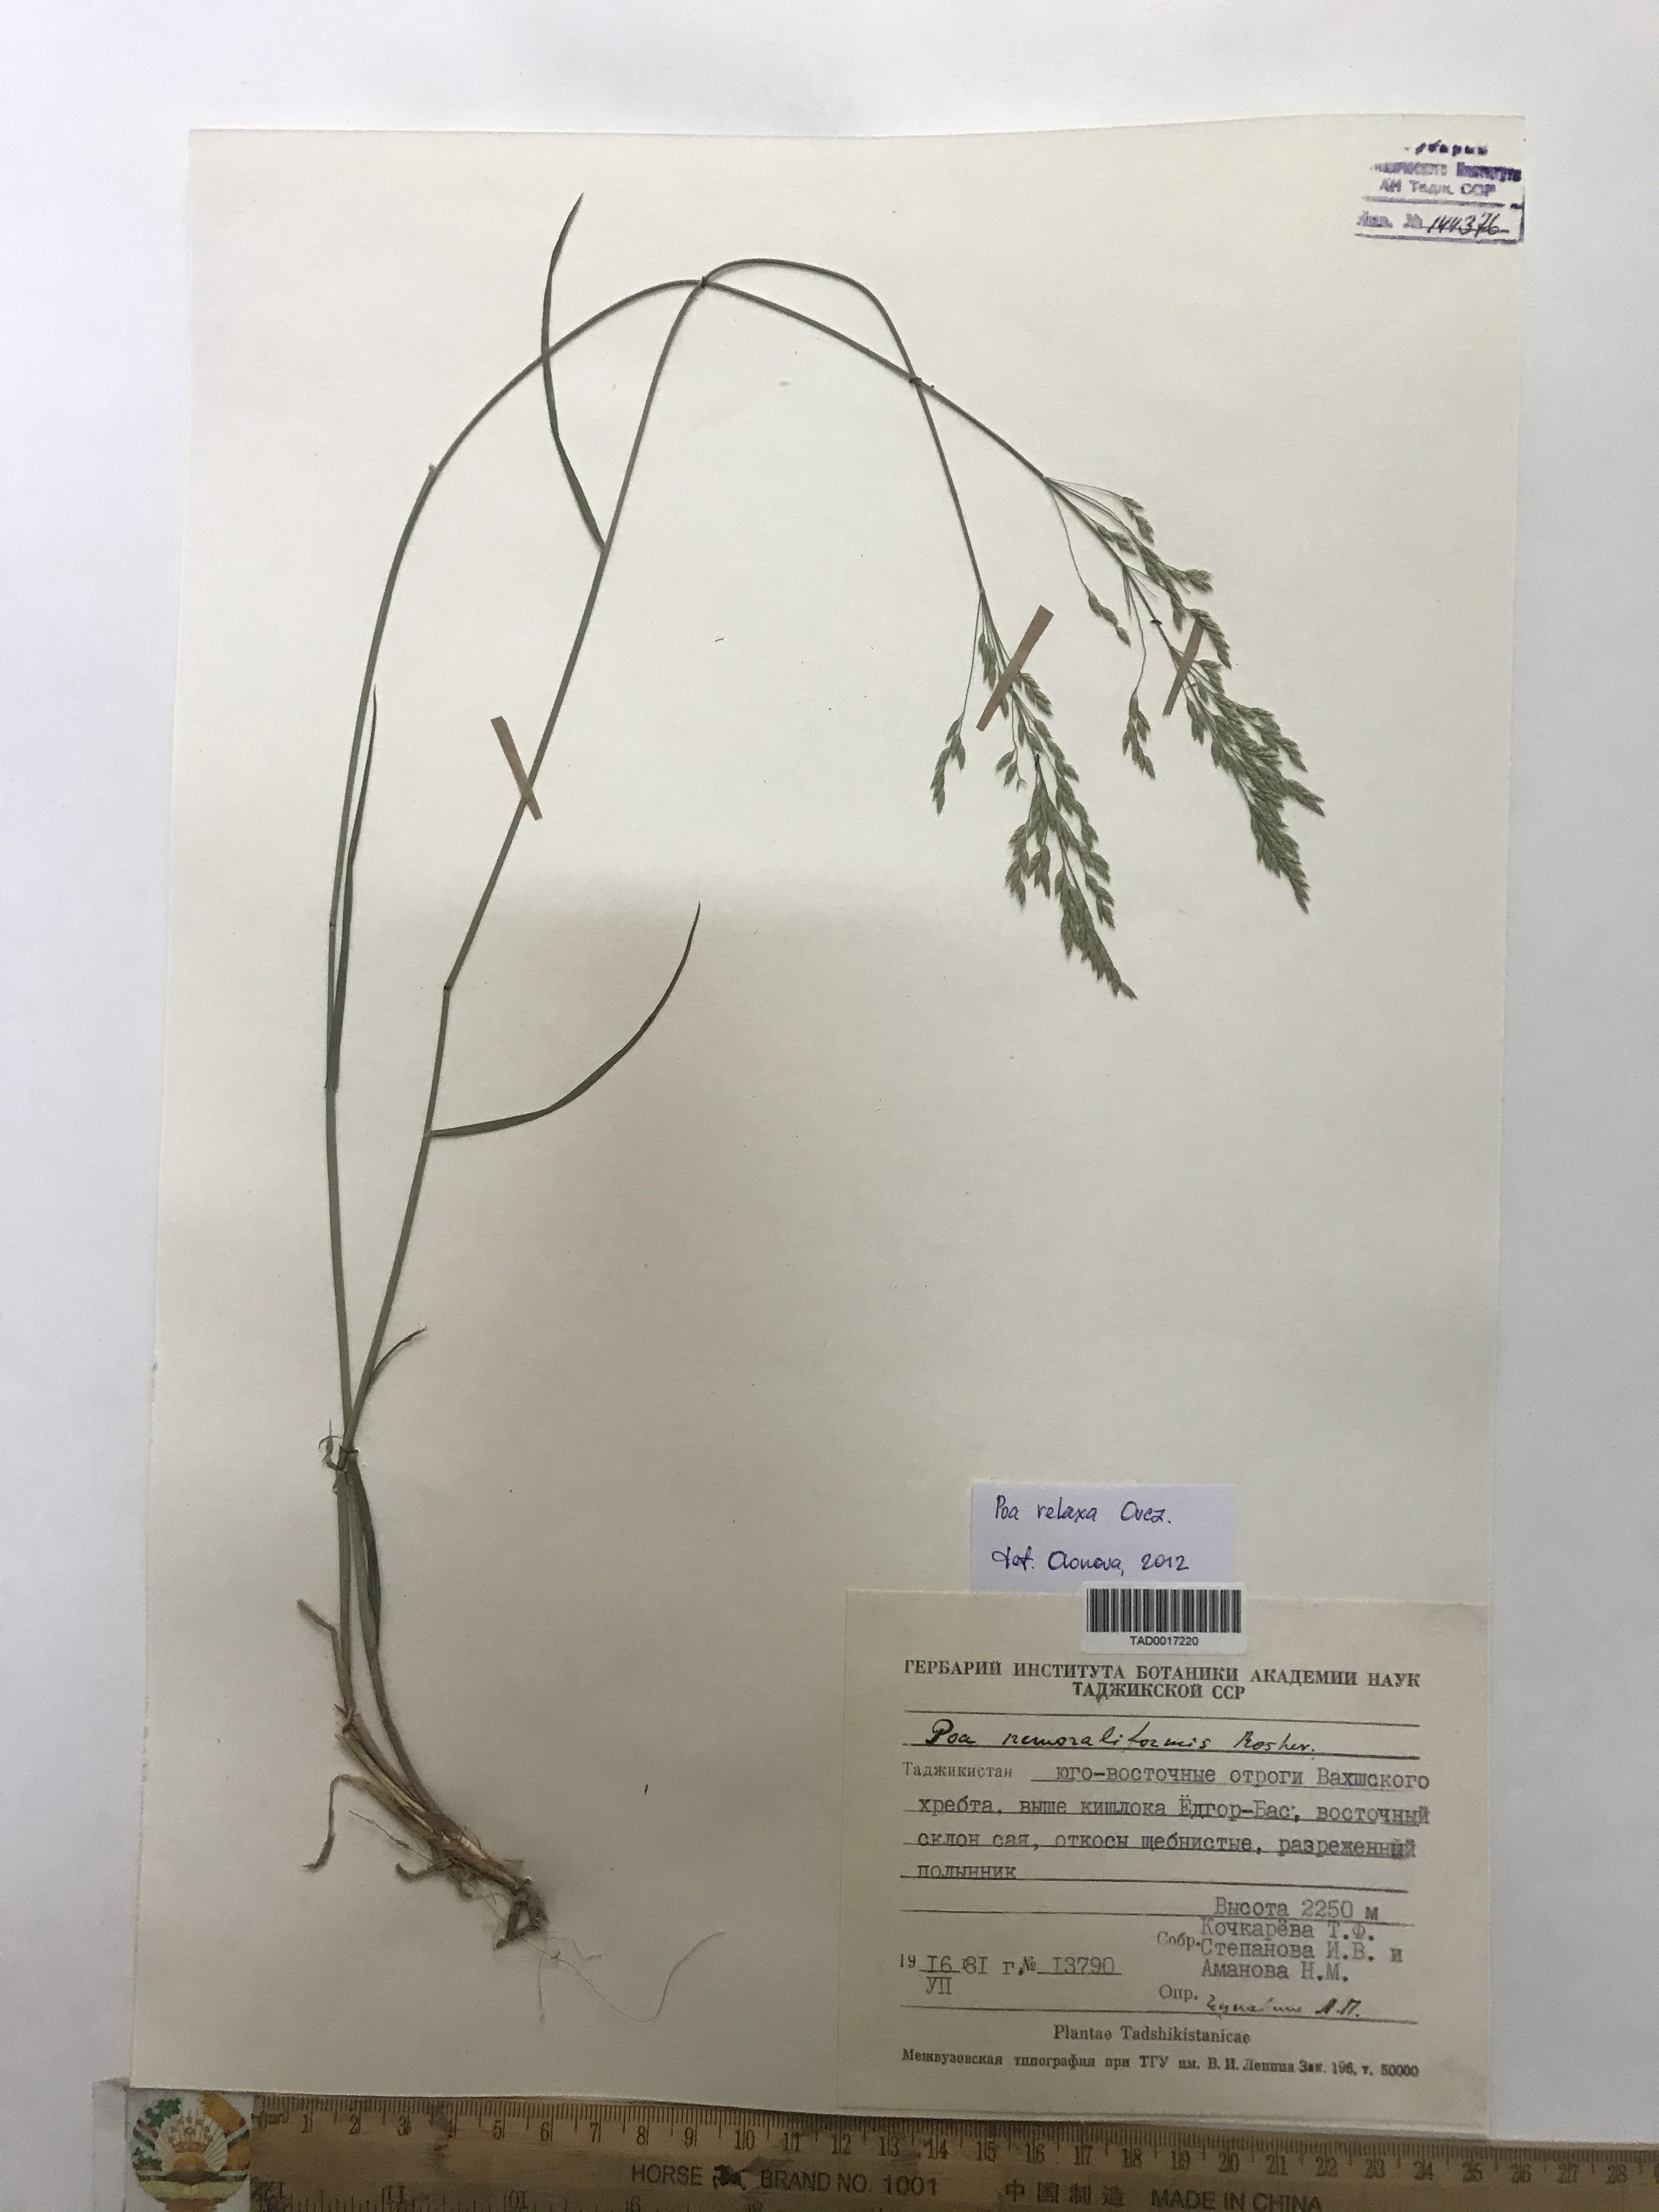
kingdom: Plantae
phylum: Tracheophyta
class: Liliopsida
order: Poales
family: Poaceae
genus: Poa
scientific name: Poa versicolor
